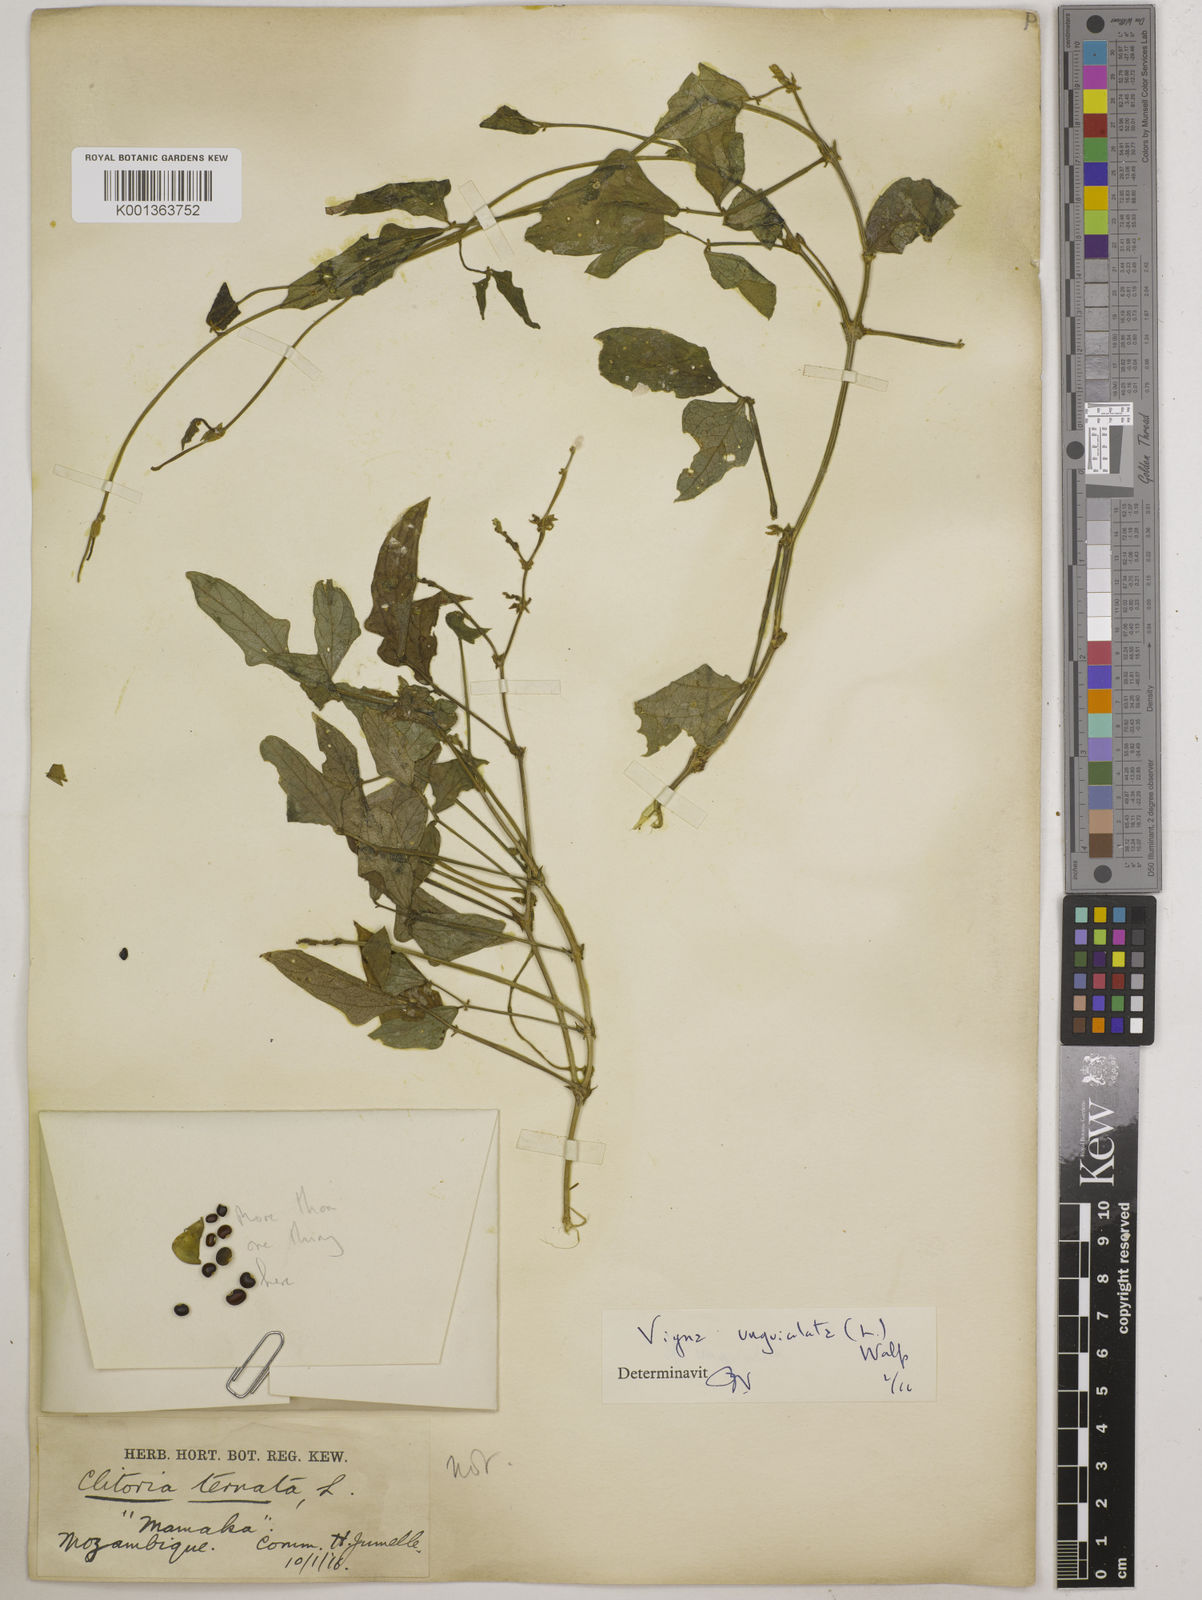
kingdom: Plantae
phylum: Tracheophyta
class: Magnoliopsida
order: Fabales
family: Fabaceae
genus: Vigna
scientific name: Vigna
